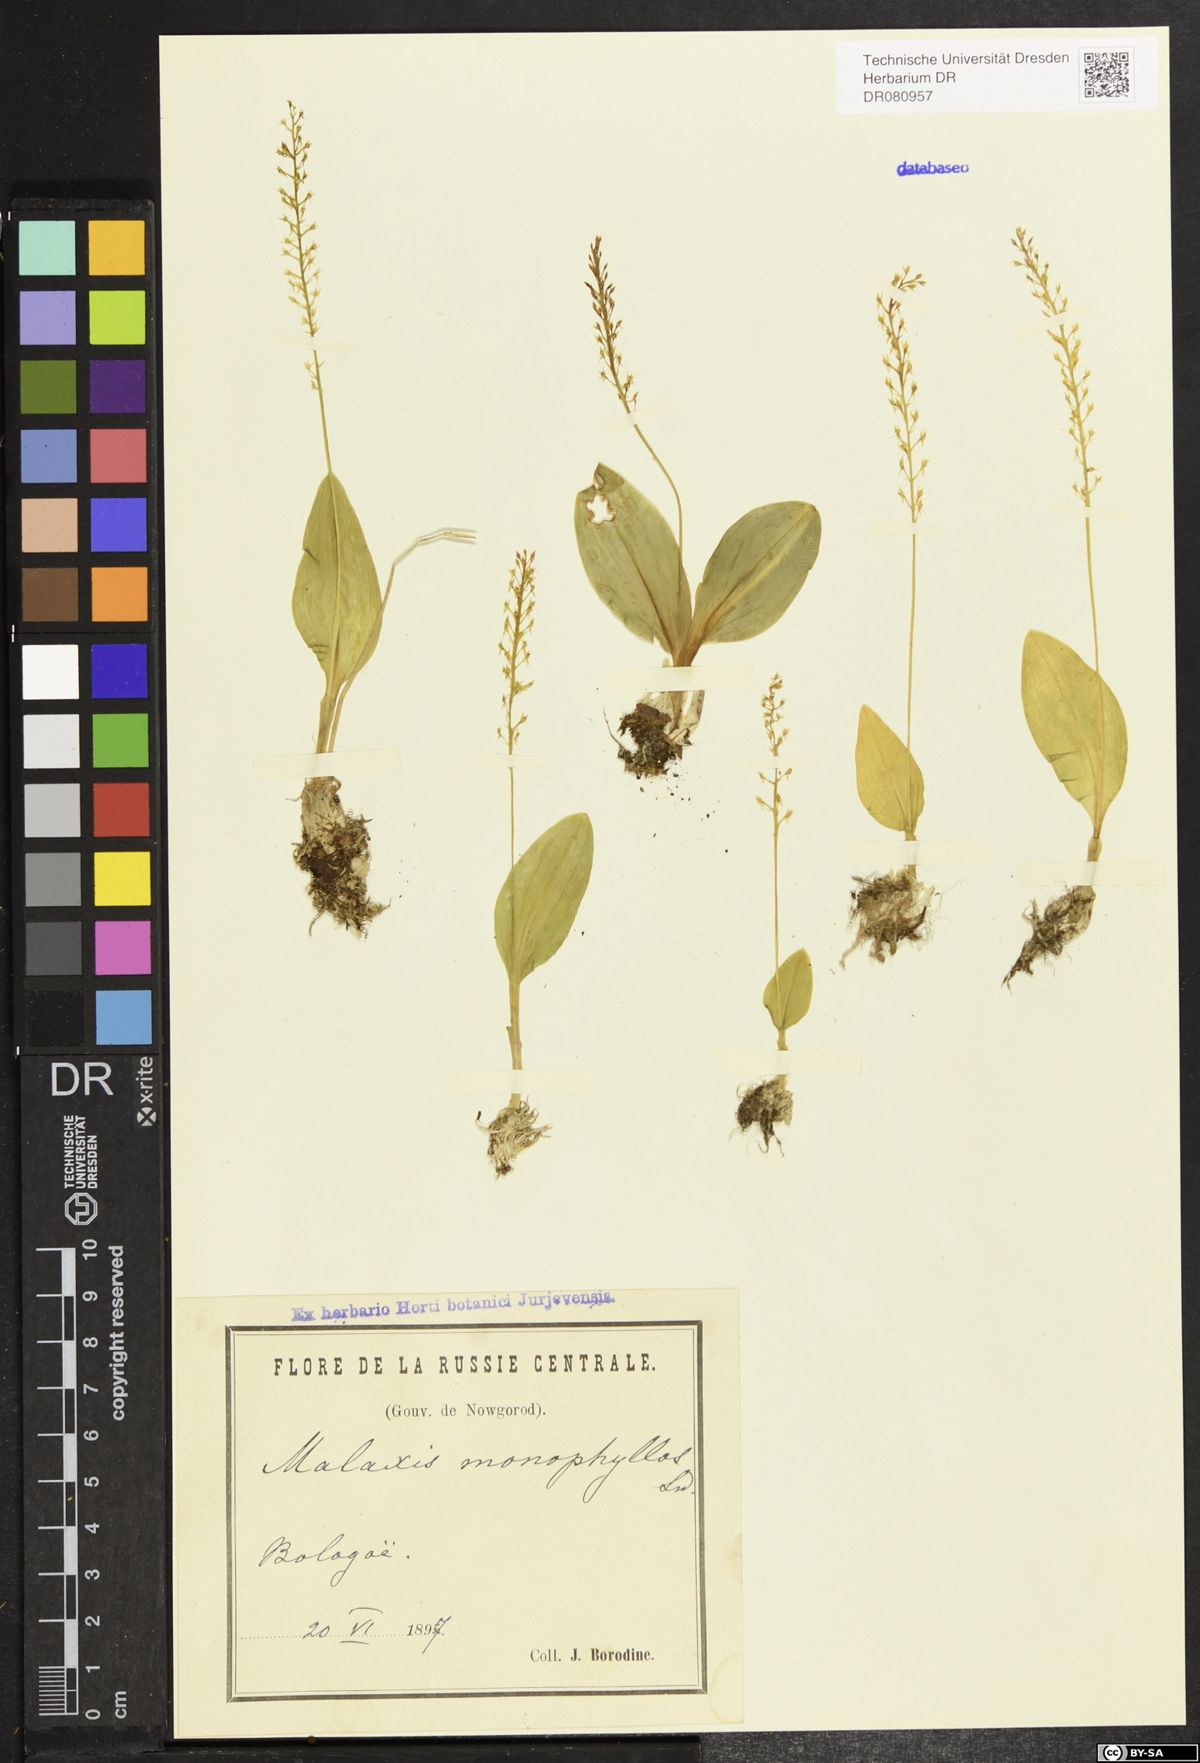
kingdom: Plantae
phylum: Tracheophyta
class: Liliopsida
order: Asparagales
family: Orchidaceae
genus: Malaxis
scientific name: Malaxis monophyllos
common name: White adder's-mouth
